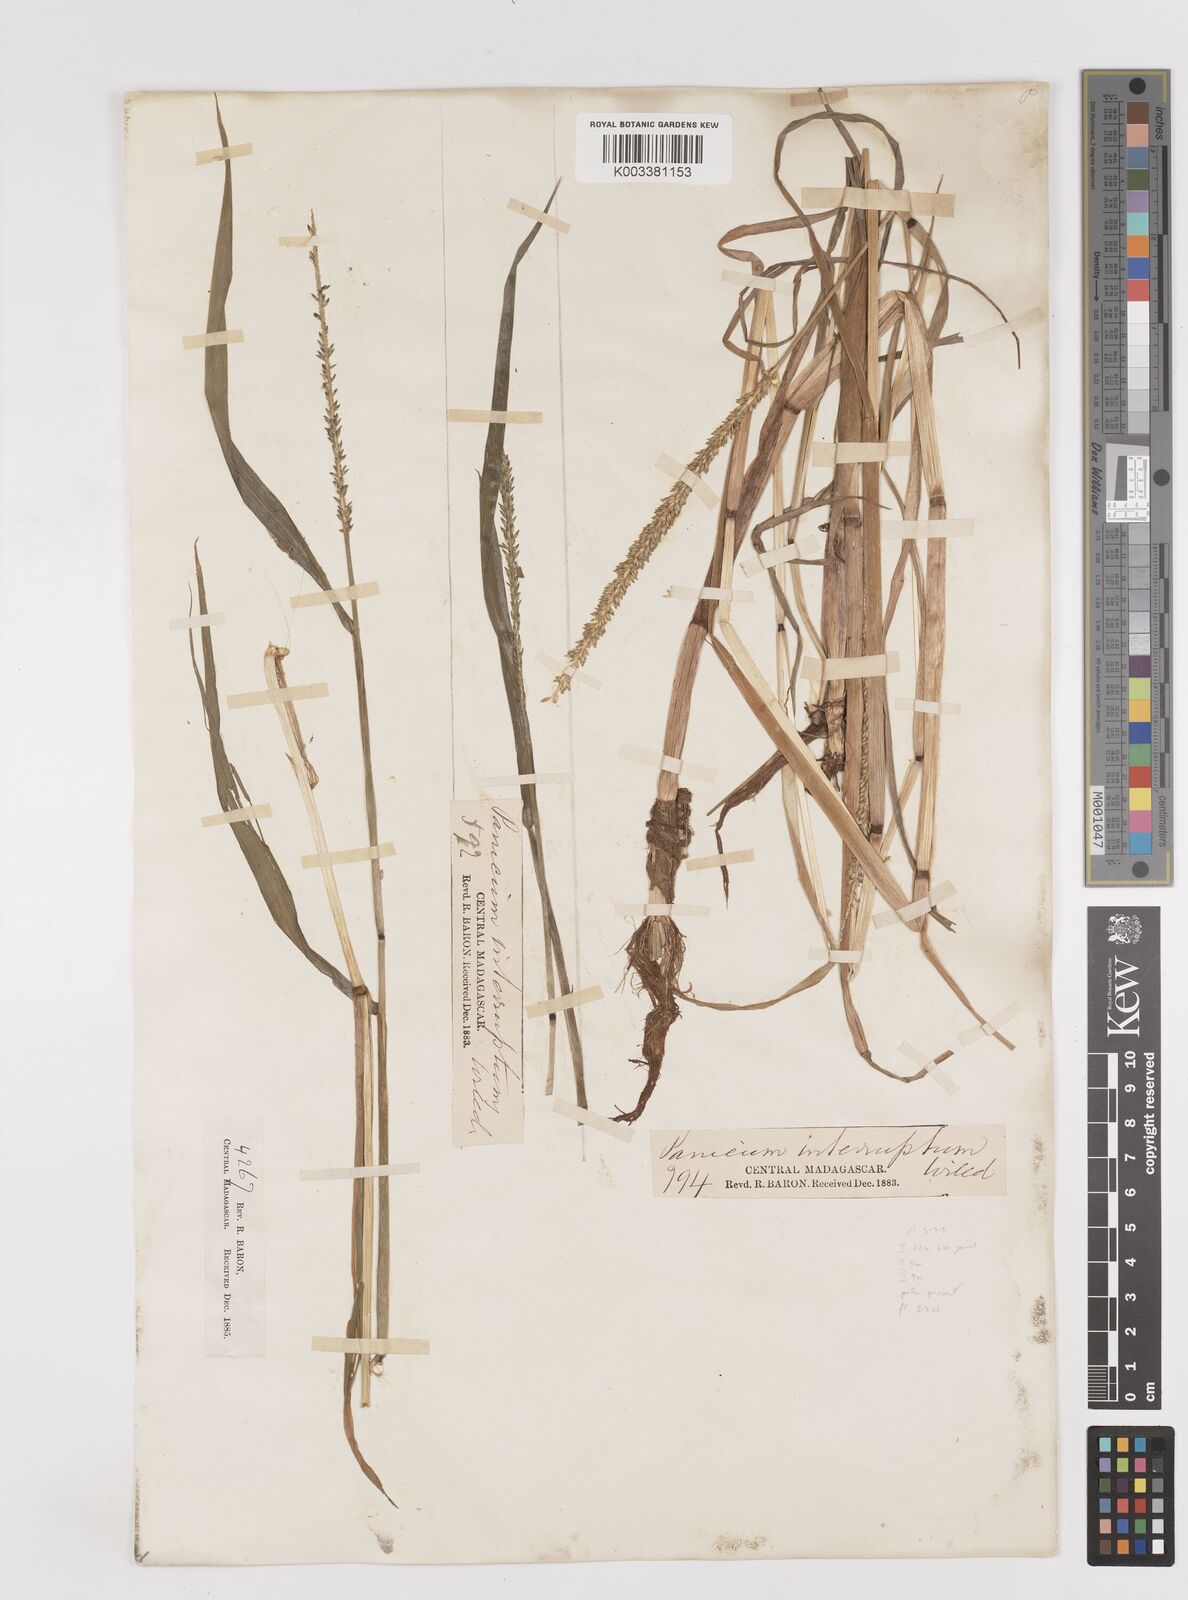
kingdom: Plantae
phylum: Tracheophyta
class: Liliopsida
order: Poales
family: Poaceae
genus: Sacciolepis
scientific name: Sacciolepis africana
